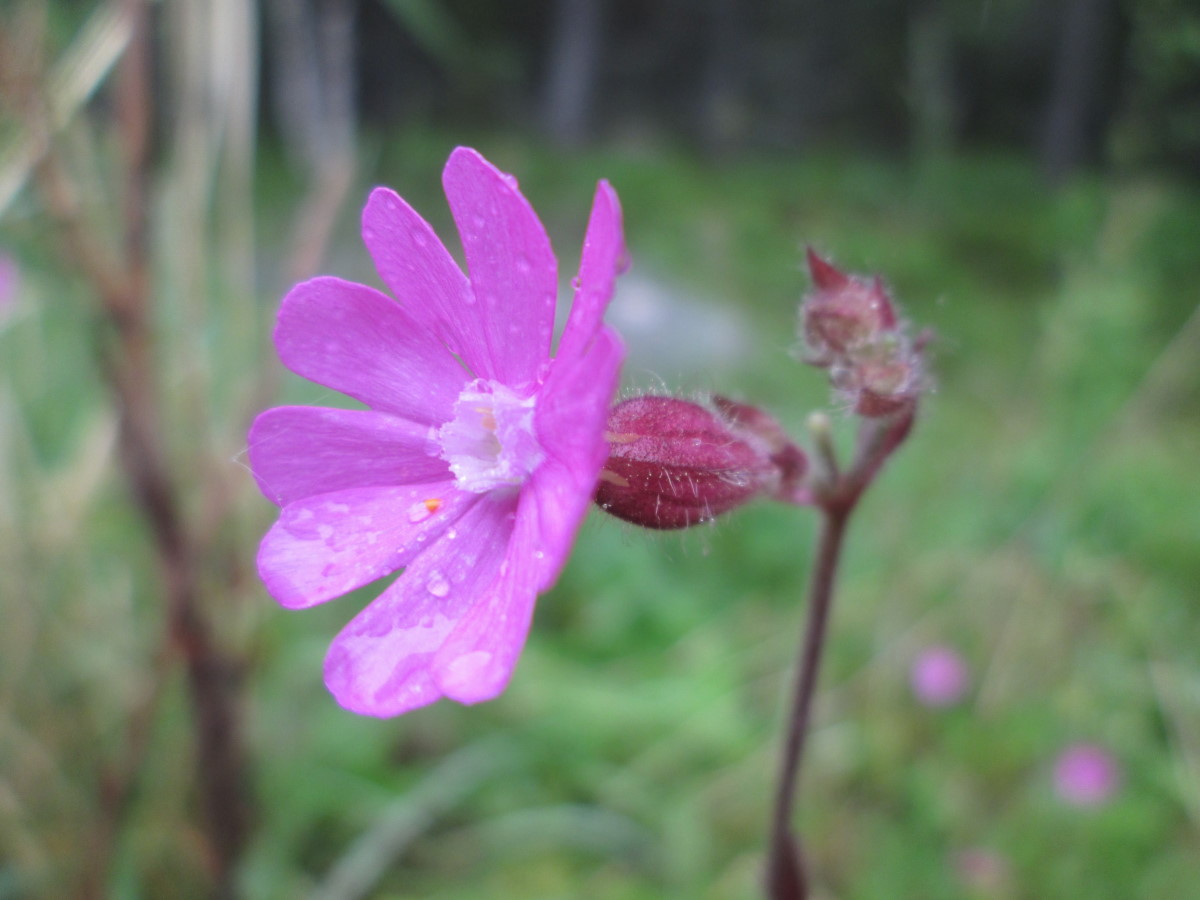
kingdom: Plantae
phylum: Tracheophyta
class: Magnoliopsida
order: Caryophyllales
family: Caryophyllaceae
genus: Silene
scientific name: Silene dioica
